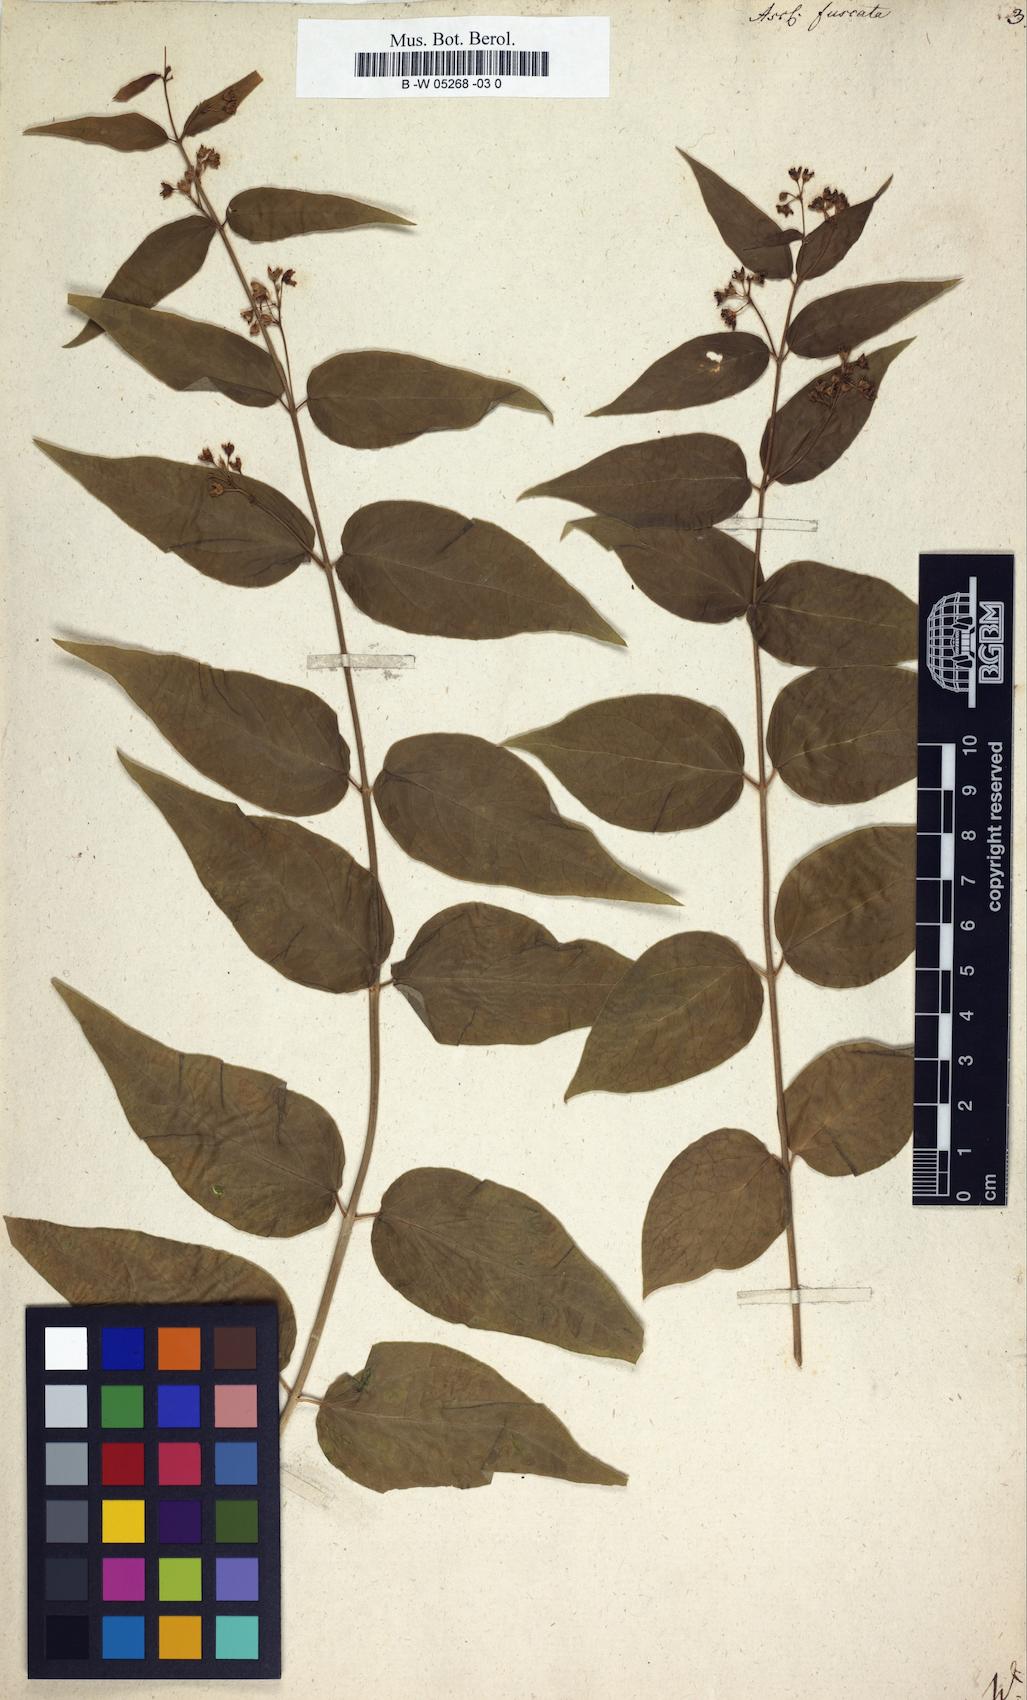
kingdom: Plantae
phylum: Tracheophyta
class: Magnoliopsida
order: Gentianales
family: Apocynaceae
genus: Vincetoxicum
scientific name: Vincetoxicum nigrum
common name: Black swallow-wort
